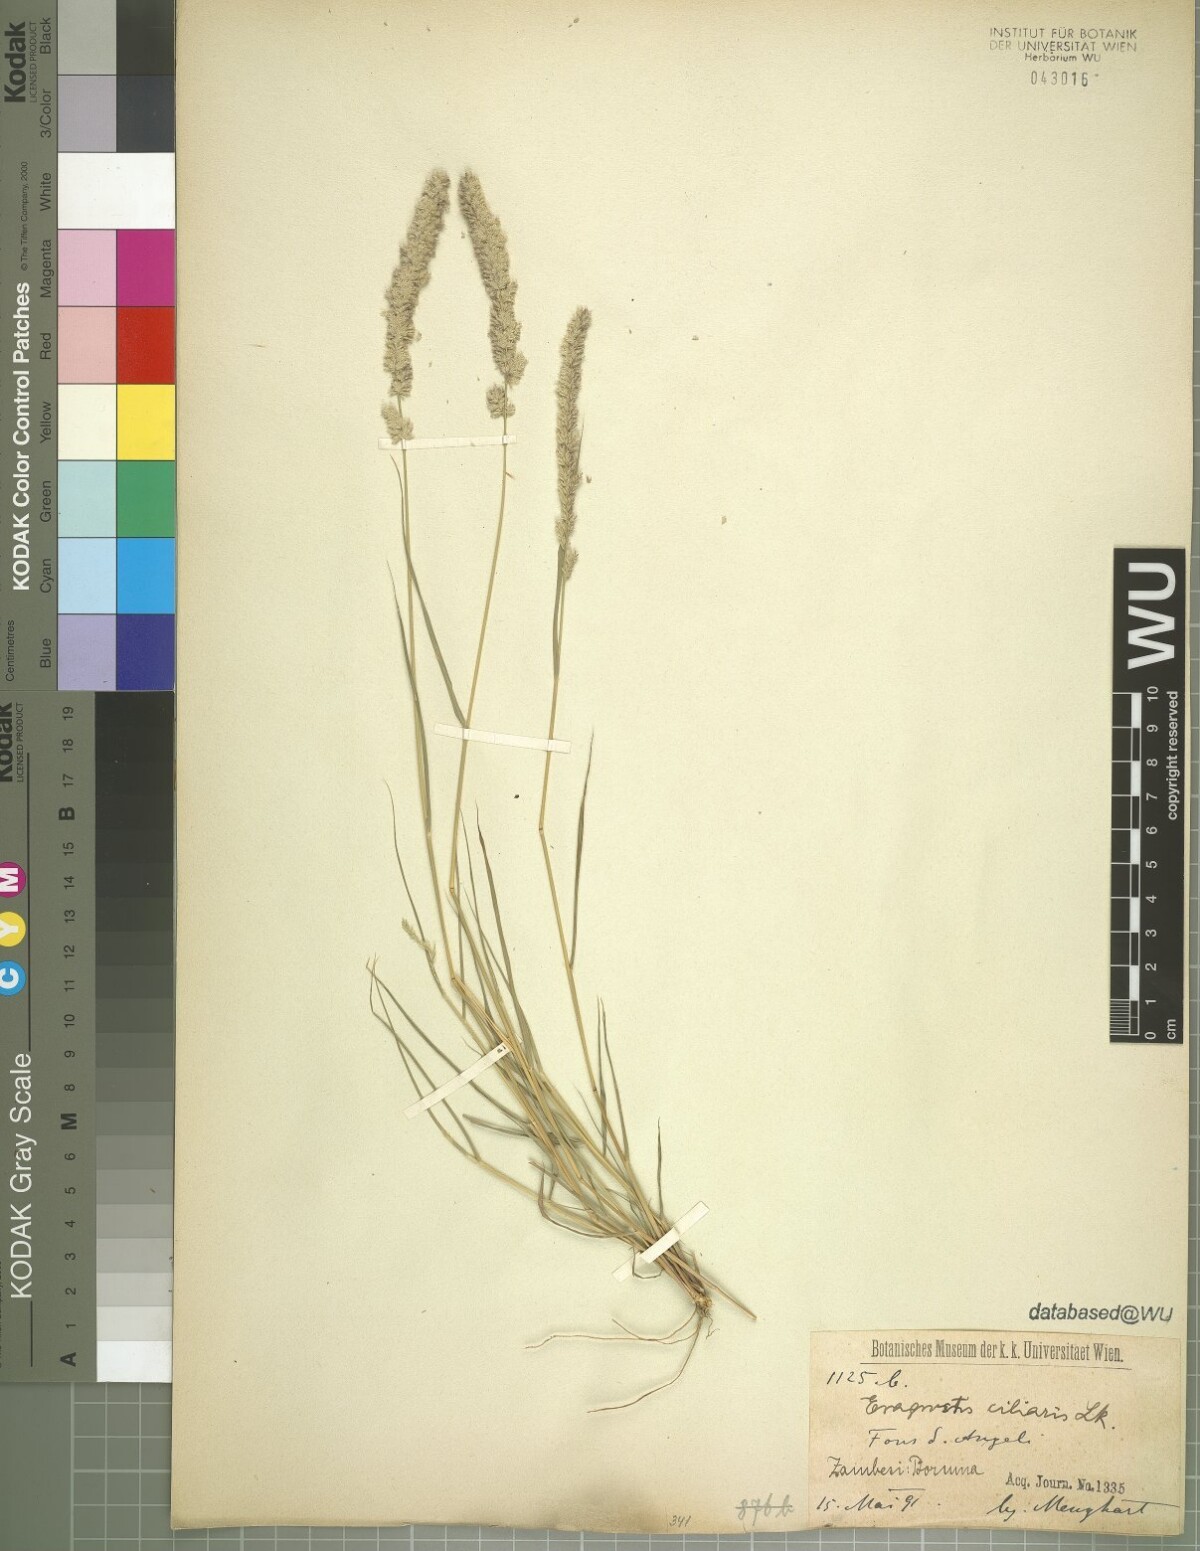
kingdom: Plantae
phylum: Tracheophyta
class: Liliopsida
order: Poales
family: Poaceae
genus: Eragrostis
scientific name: Eragrostis ciliaris
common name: Gophertail lovegrass
